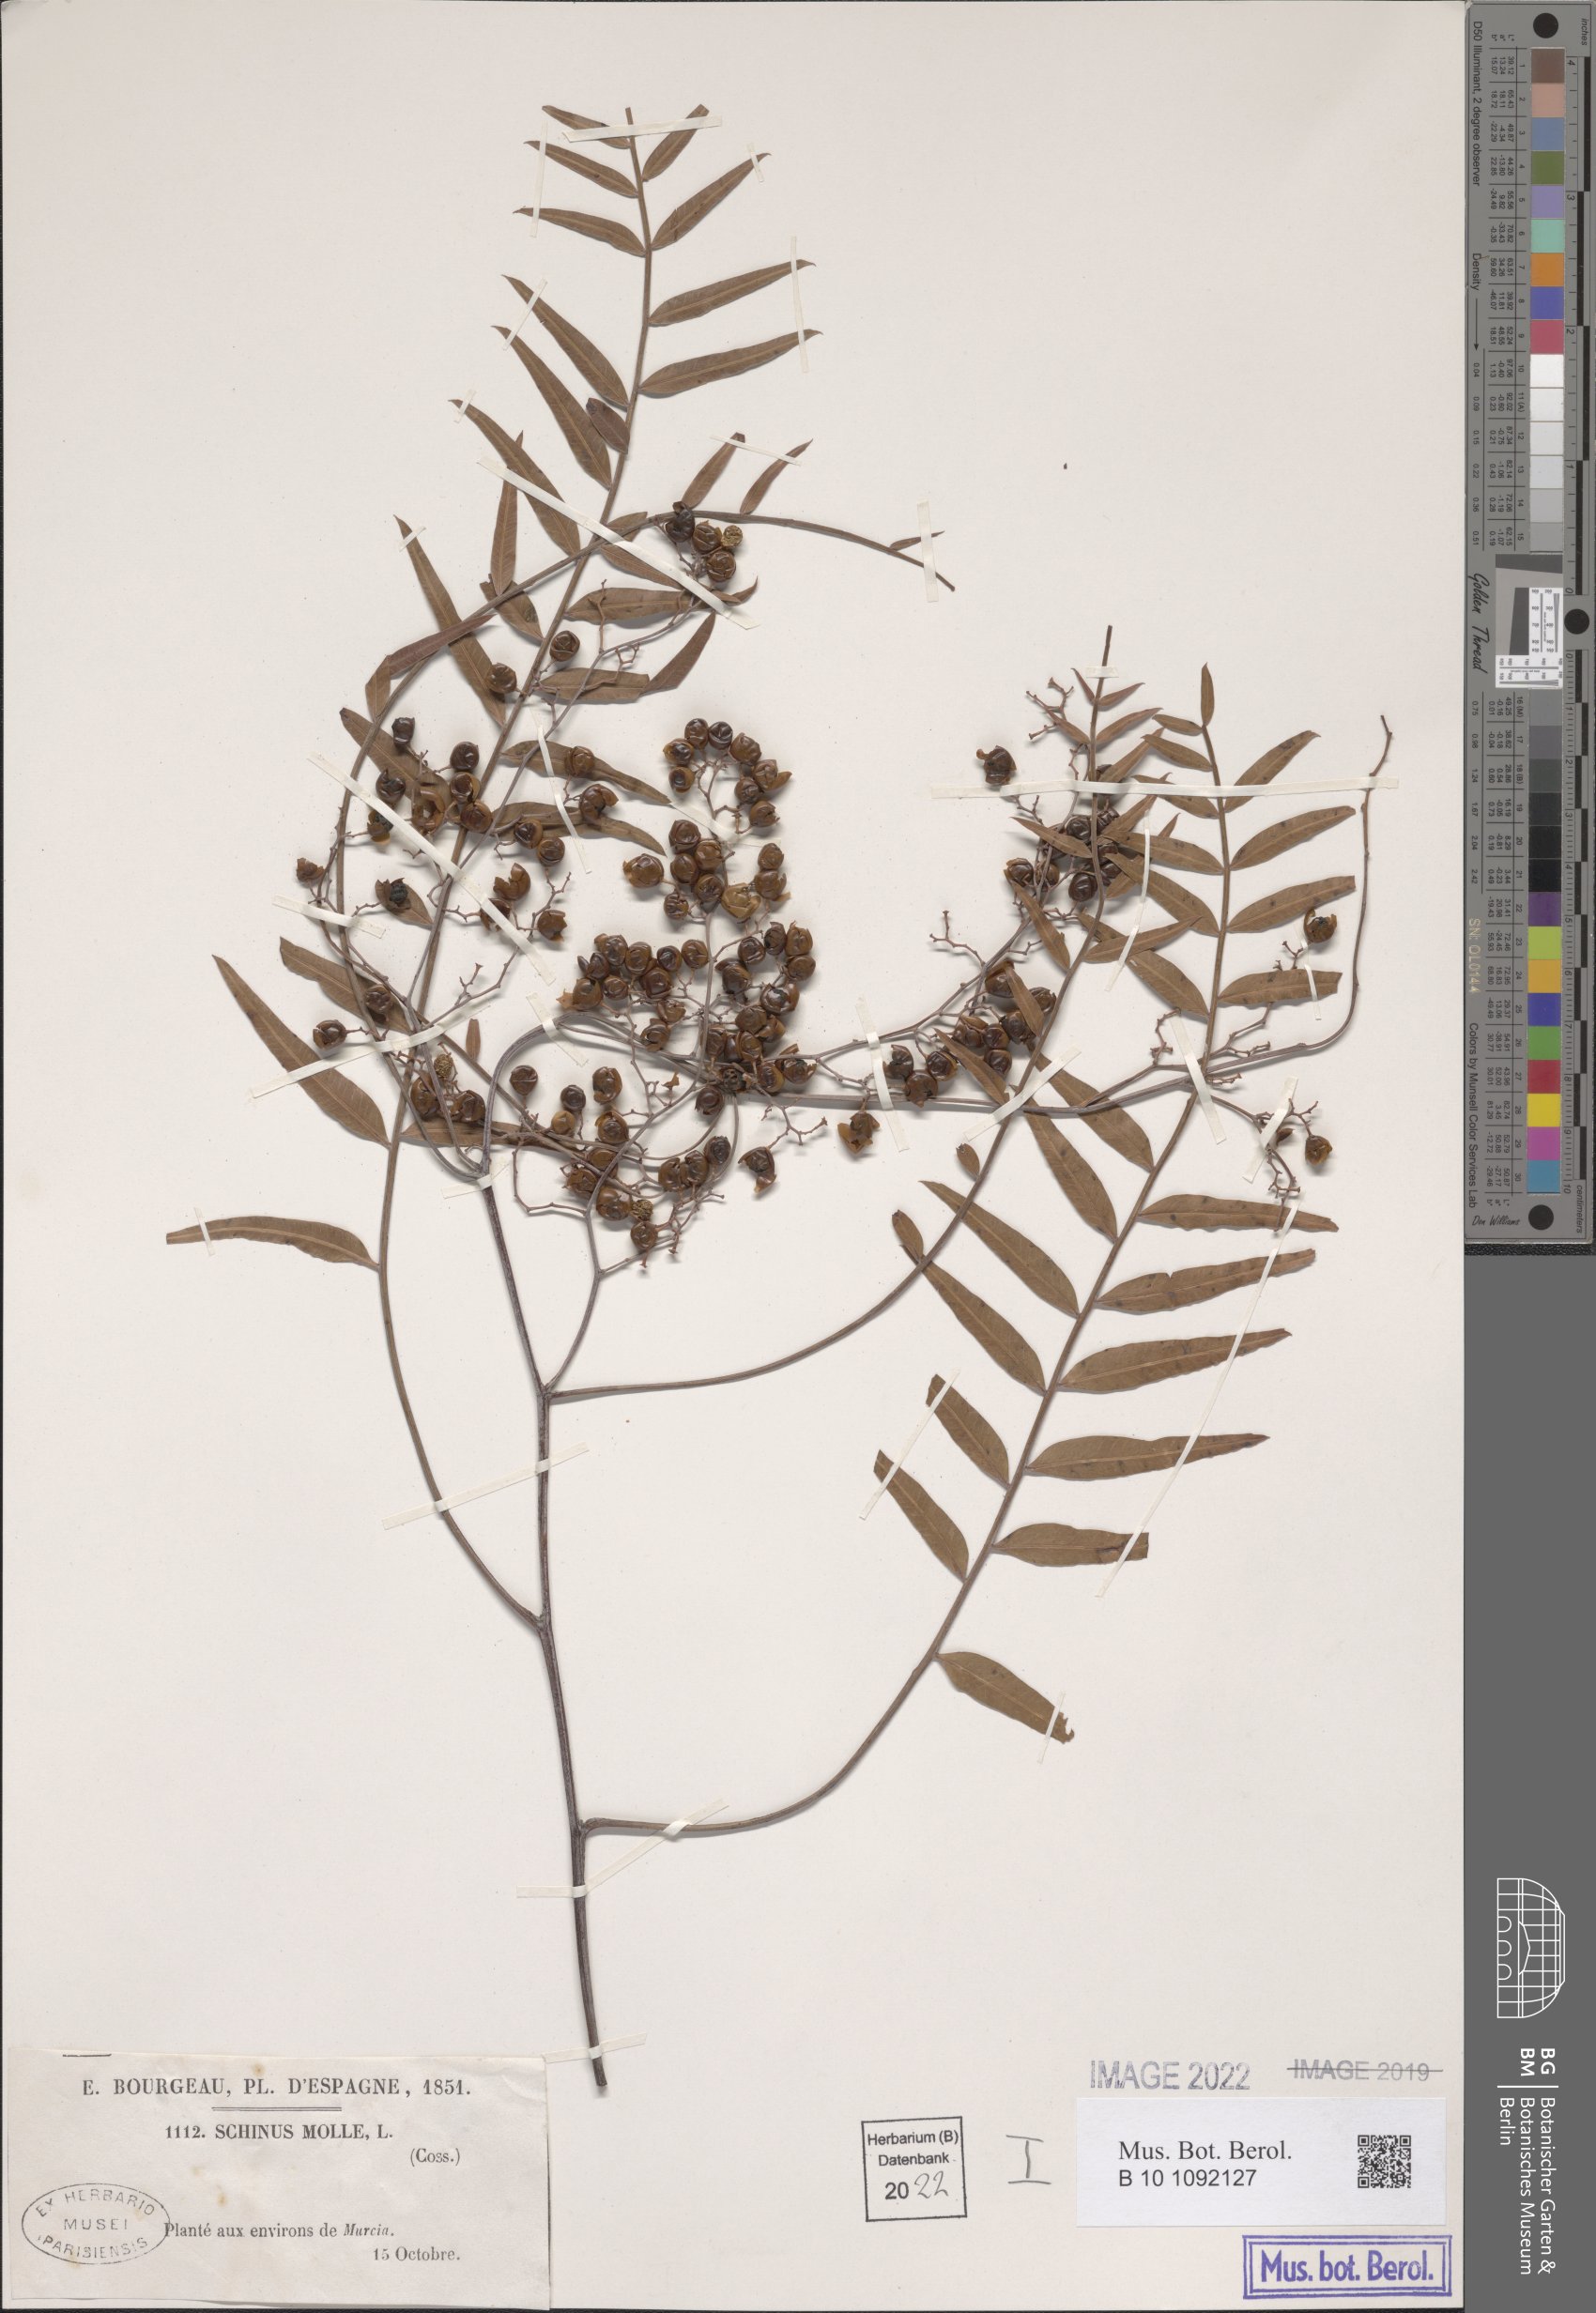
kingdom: Plantae
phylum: Tracheophyta
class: Magnoliopsida
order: Sapindales
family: Anacardiaceae
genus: Schinus
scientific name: Schinus molle
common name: Peruvian peppertree
